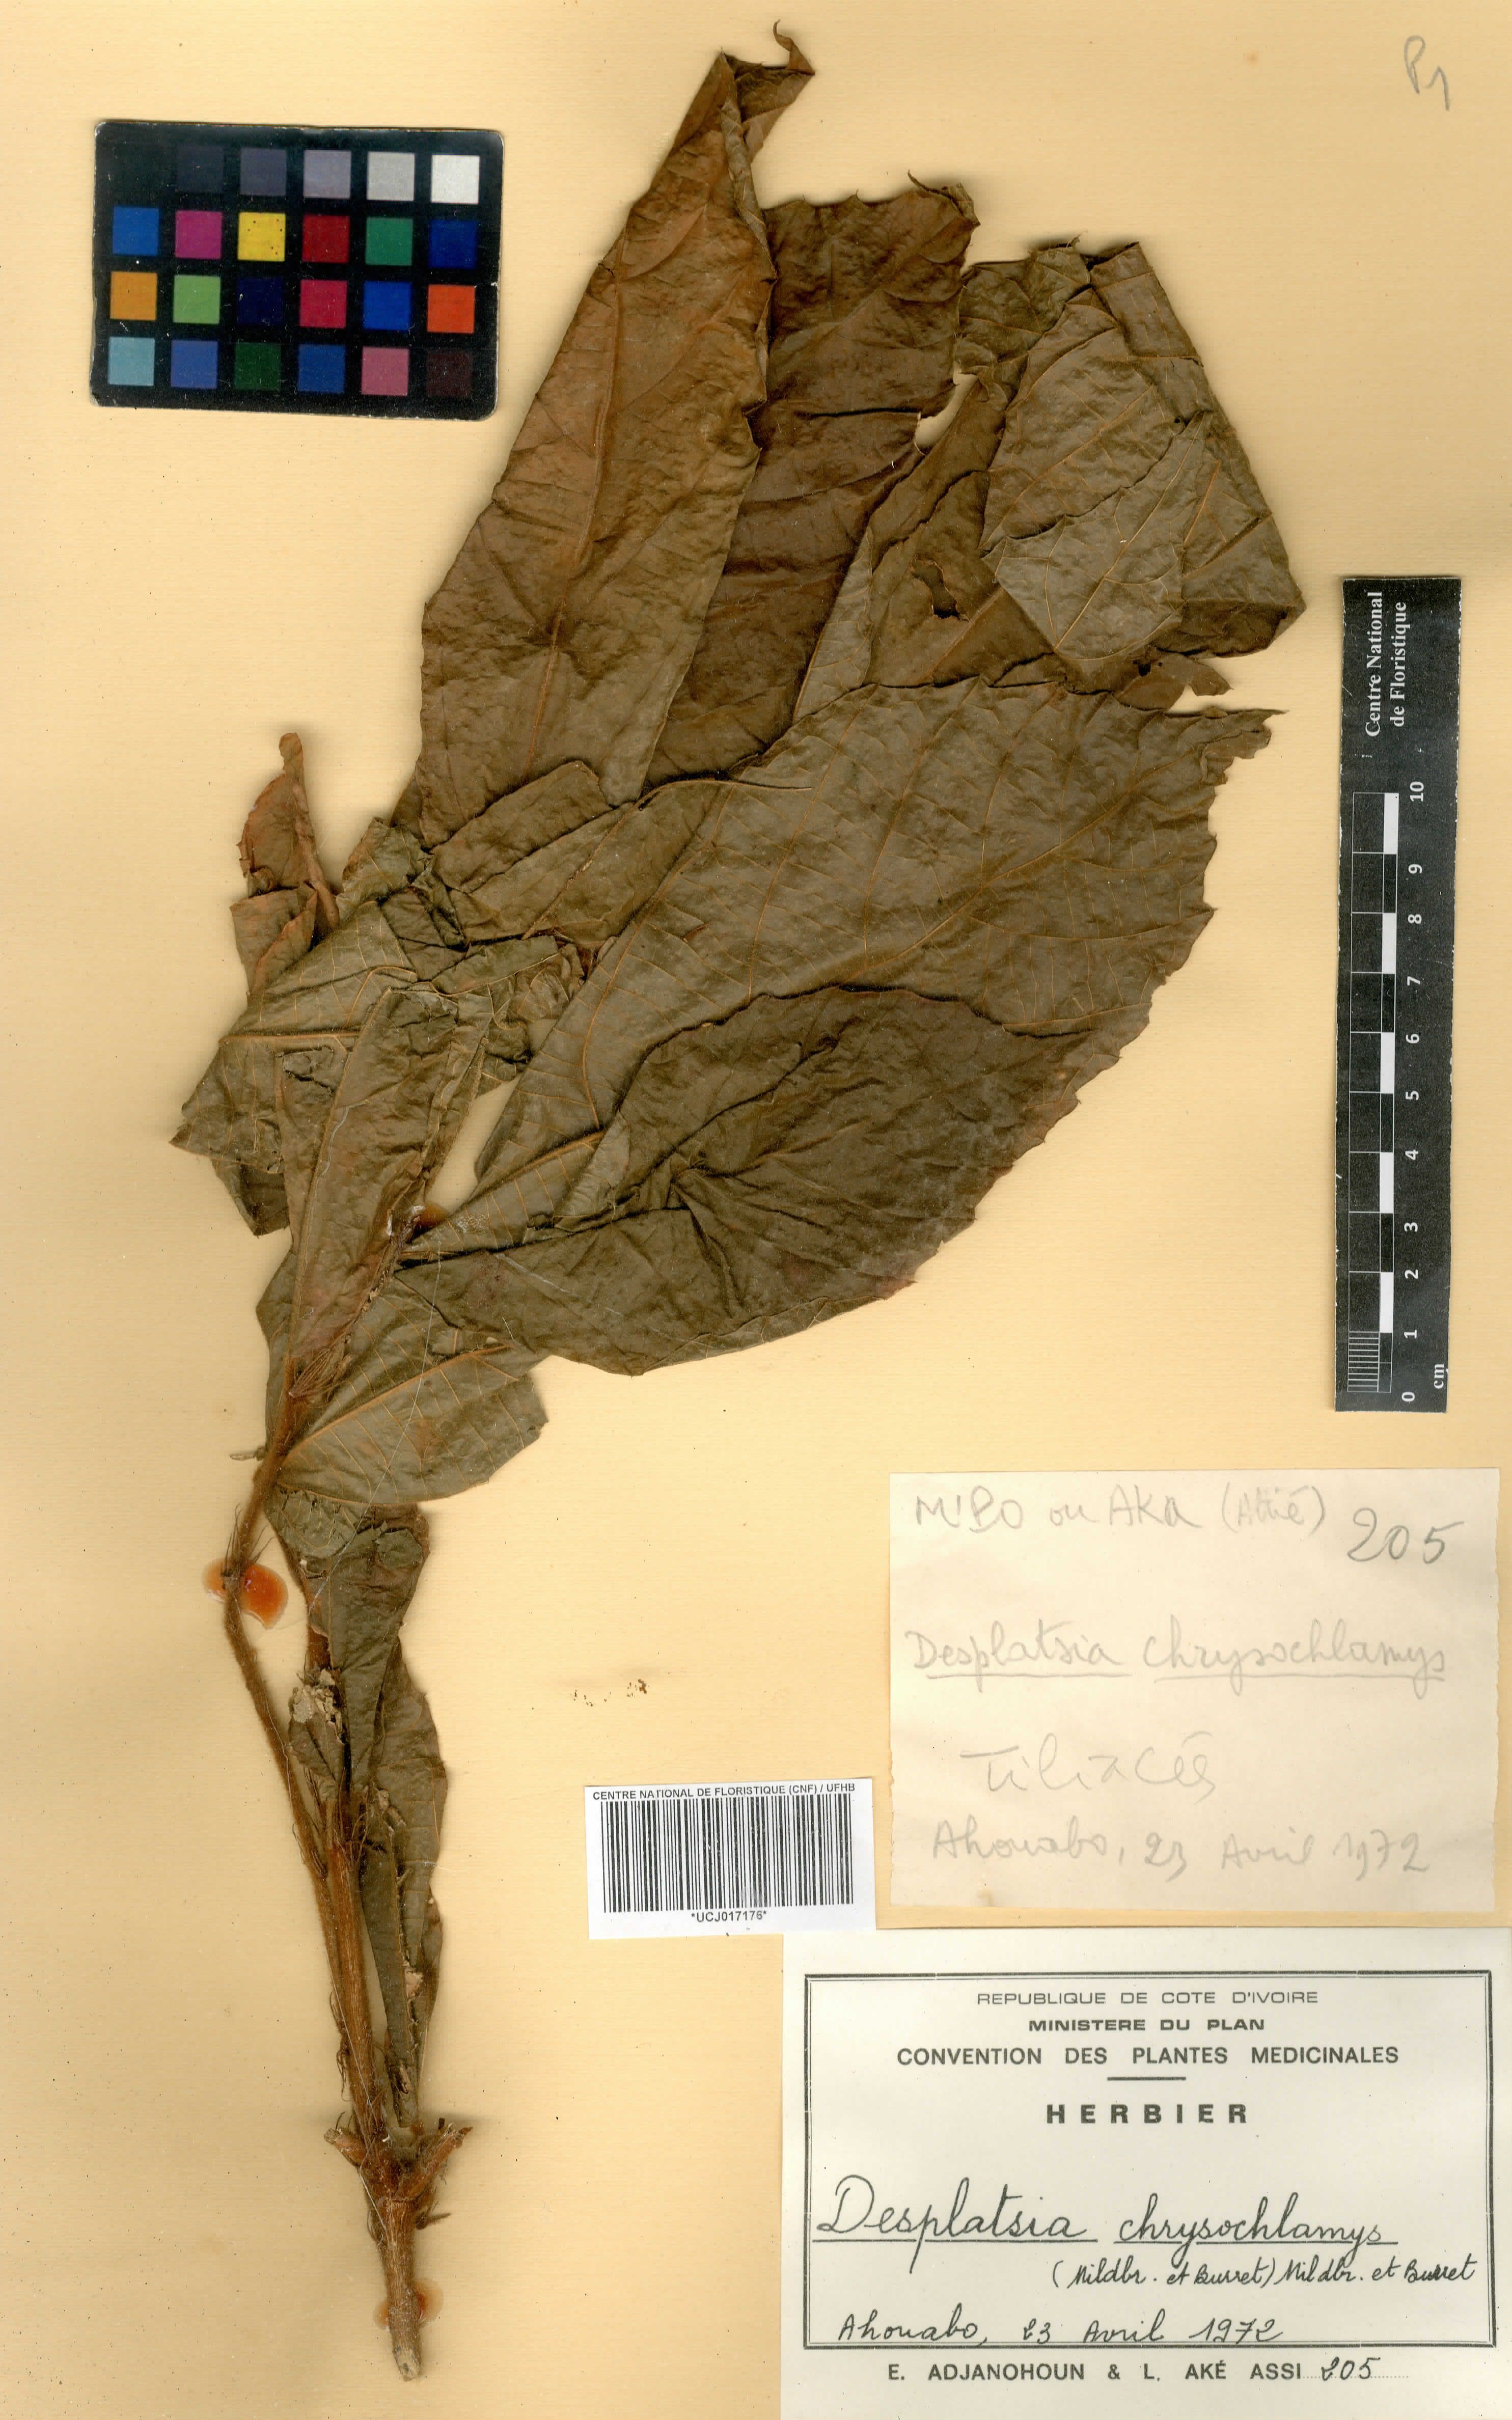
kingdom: Plantae
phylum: Tracheophyta
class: Magnoliopsida
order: Malvales
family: Malvaceae
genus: Desplatsia
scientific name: Desplatsia chrysochlamys
